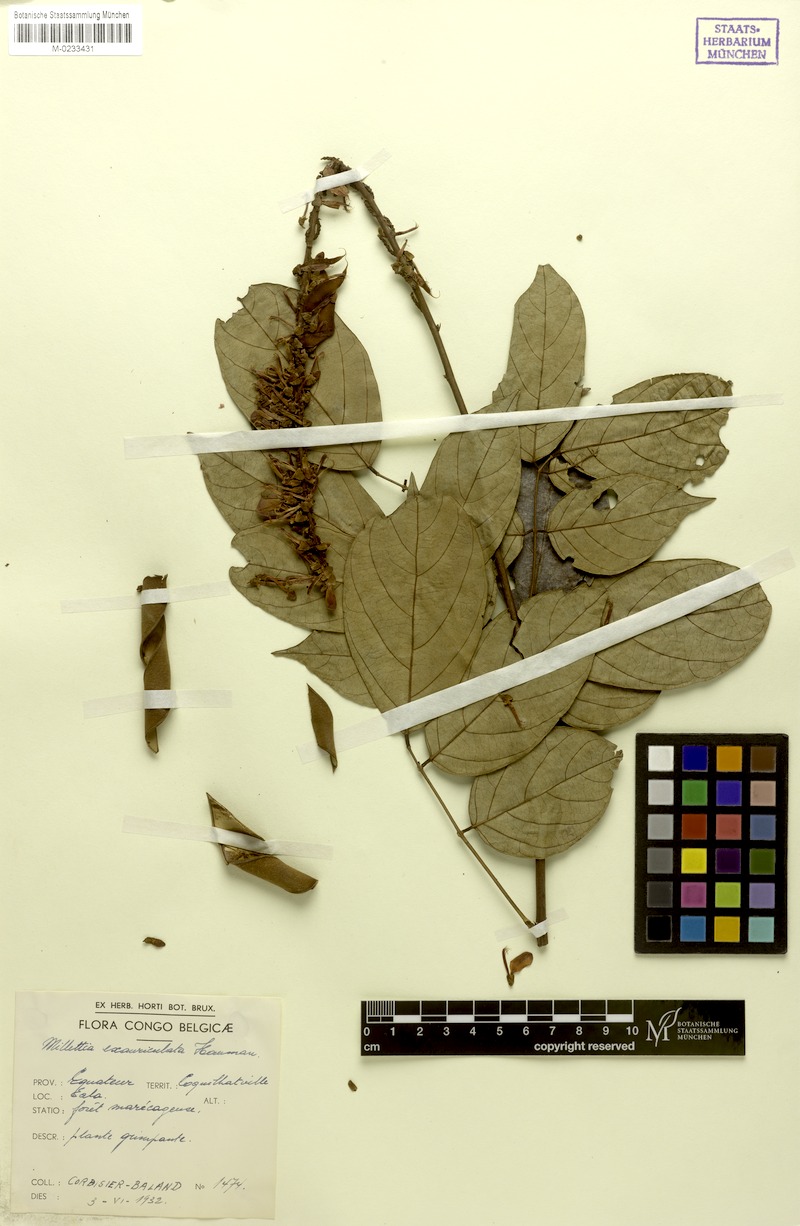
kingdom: Plantae
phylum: Tracheophyta
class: Magnoliopsida
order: Fabales
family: Fabaceae
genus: Millettia
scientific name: Millettia exauriculata
